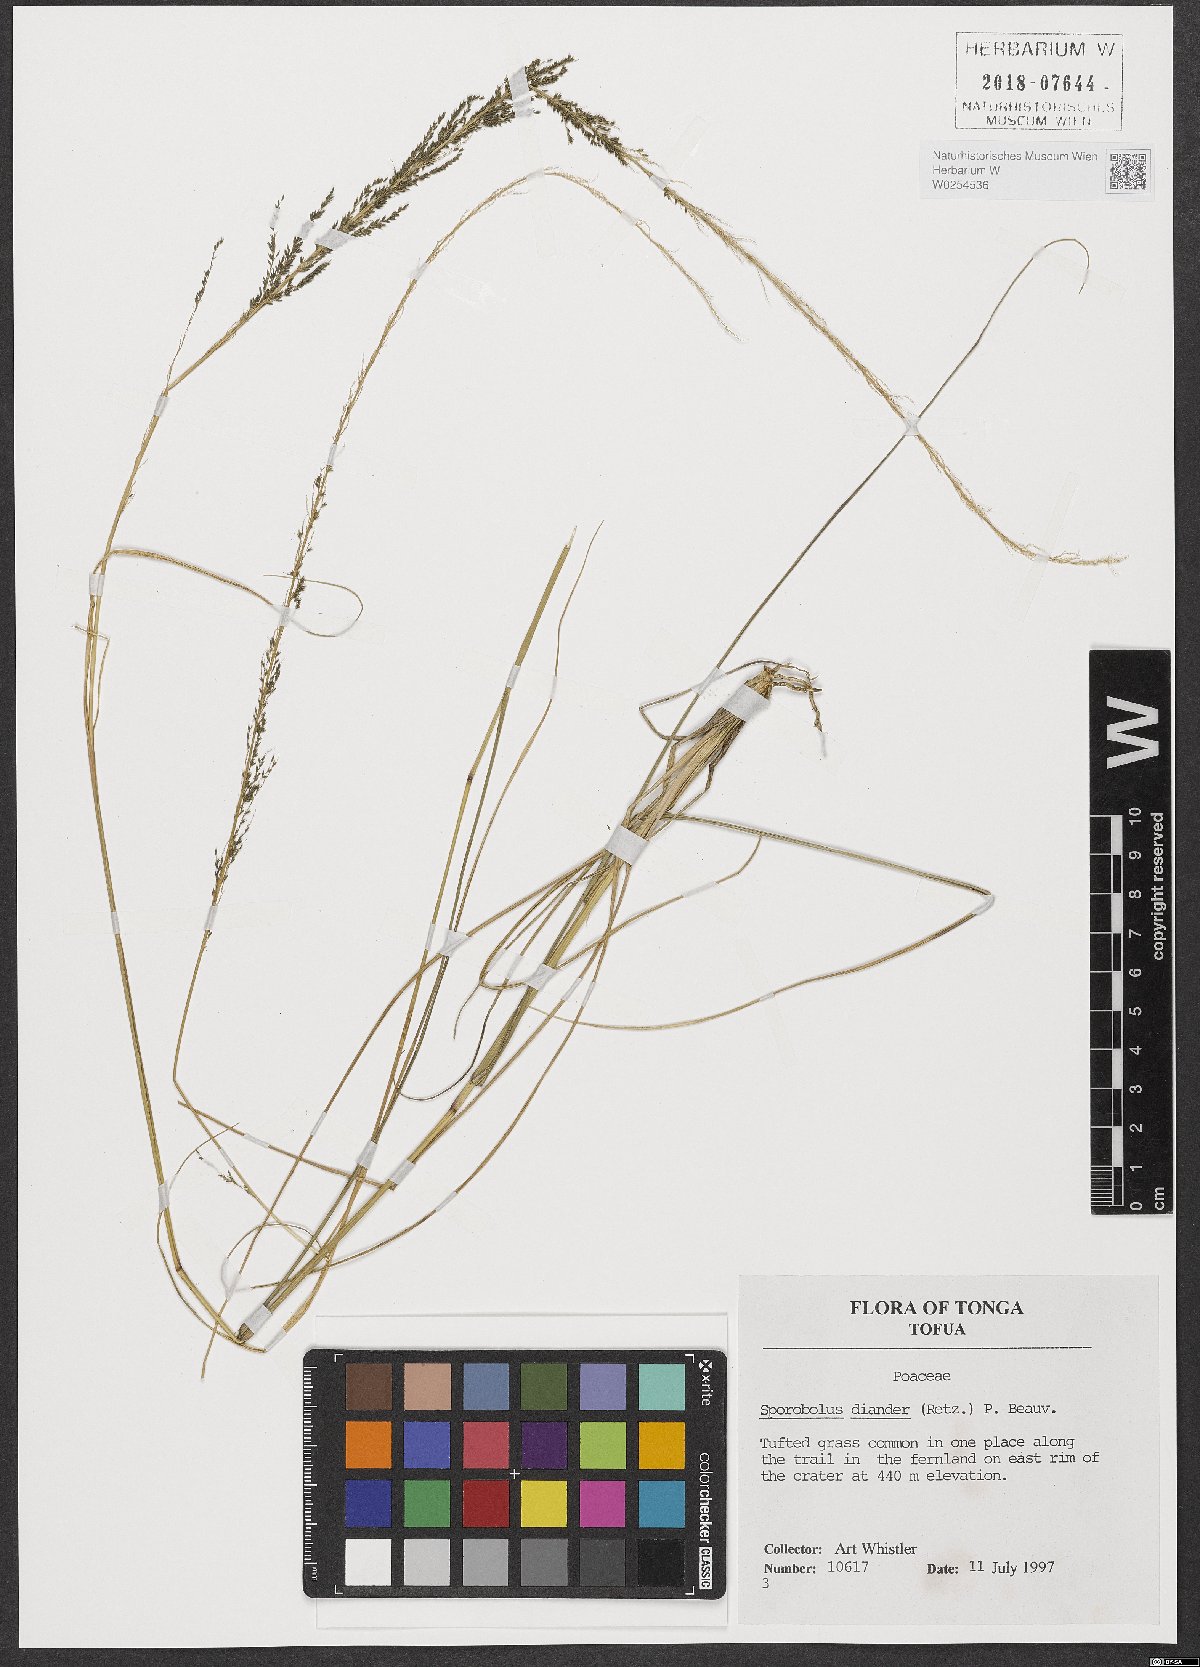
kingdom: Plantae
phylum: Tracheophyta
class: Liliopsida
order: Poales
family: Poaceae
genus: Sporobolus
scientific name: Sporobolus diandrus
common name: Tussock dropseed
